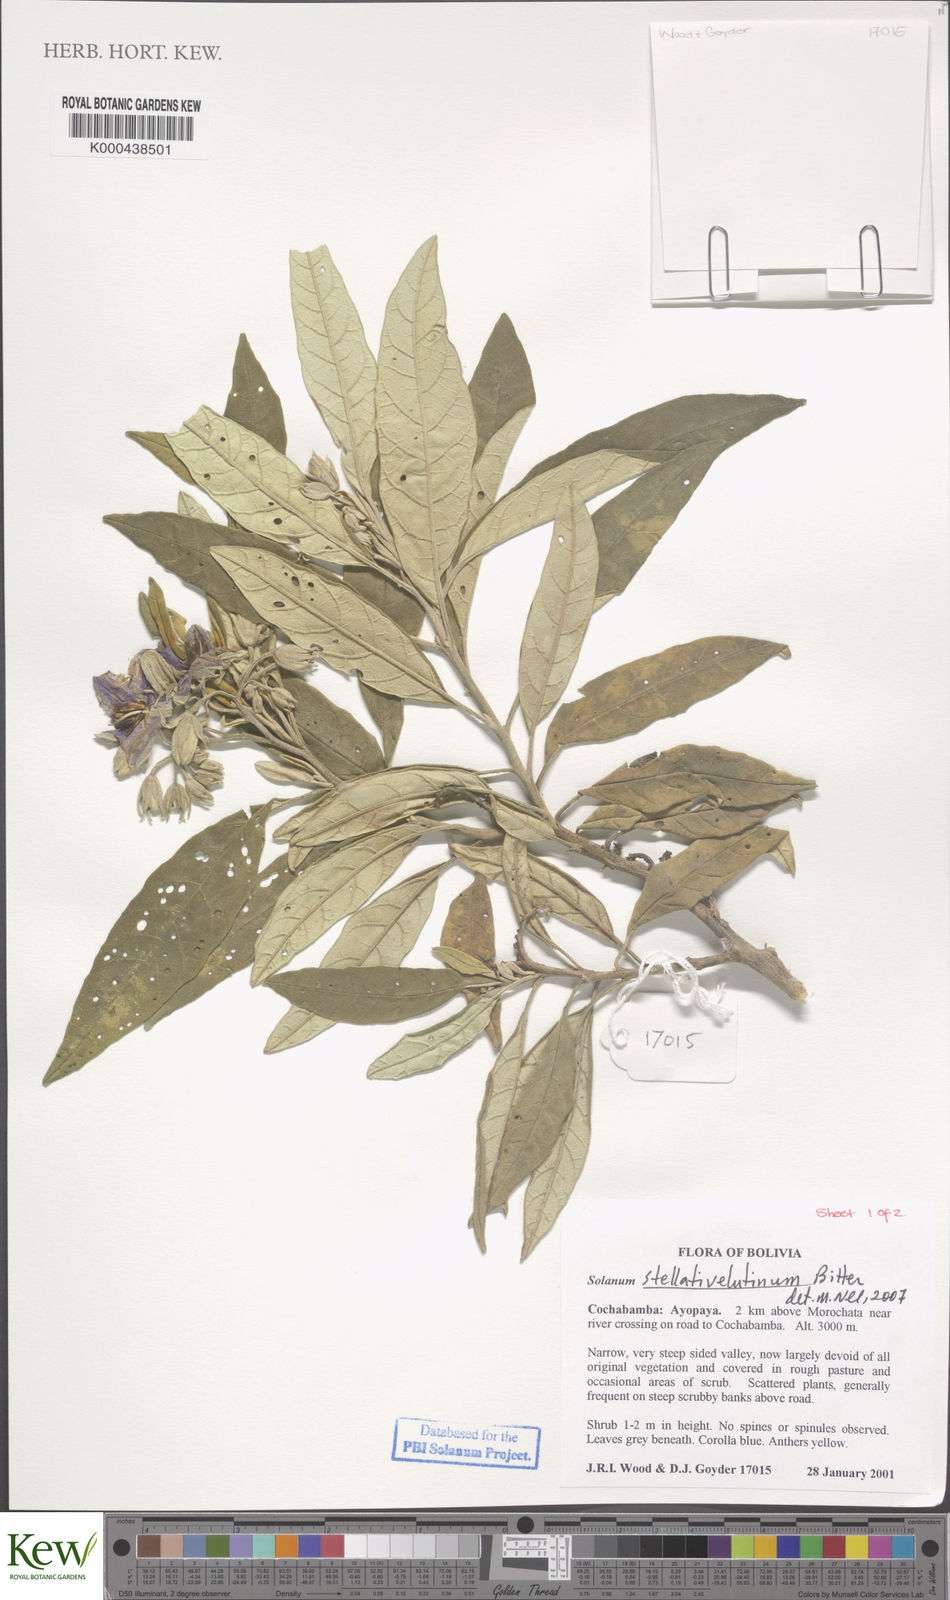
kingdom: Plantae
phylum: Tracheophyta
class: Magnoliopsida
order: Solanales
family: Solanaceae
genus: Solanum
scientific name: Solanum stellativelutinum
